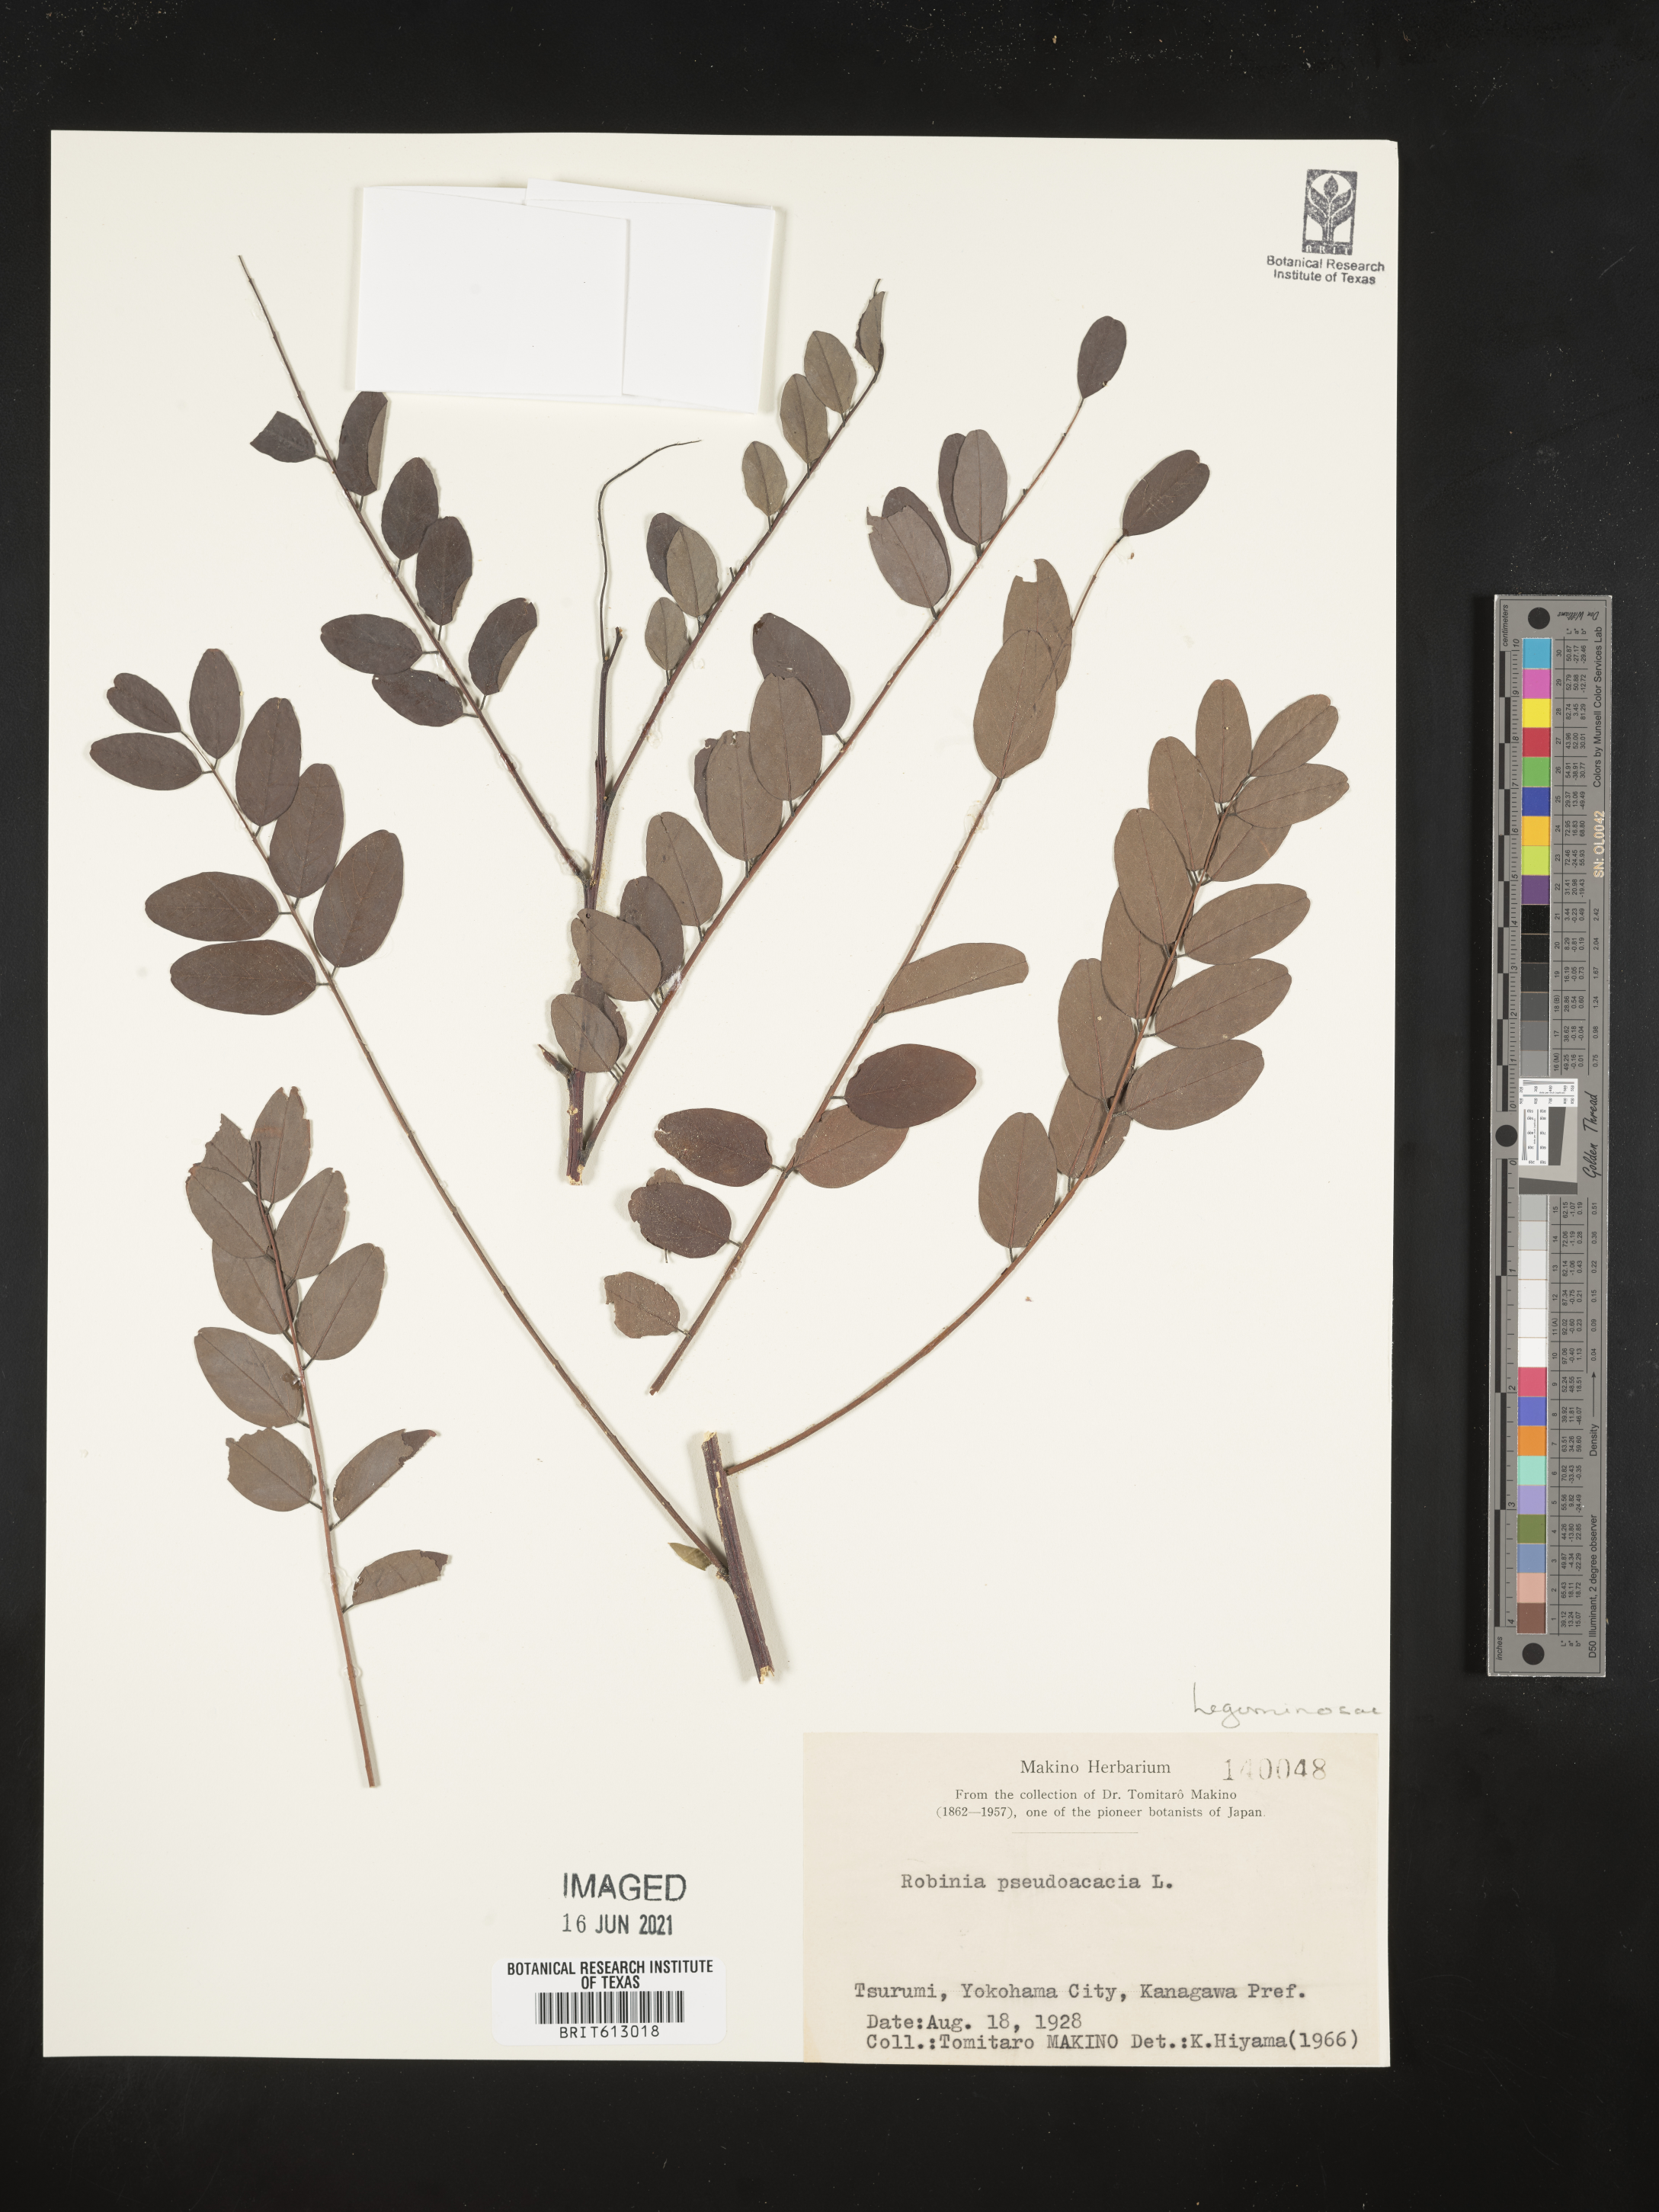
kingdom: Plantae
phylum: Tracheophyta
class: Magnoliopsida
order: Fabales
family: Fabaceae
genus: Robinia
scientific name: Robinia pseudoacacia
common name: Black locust
